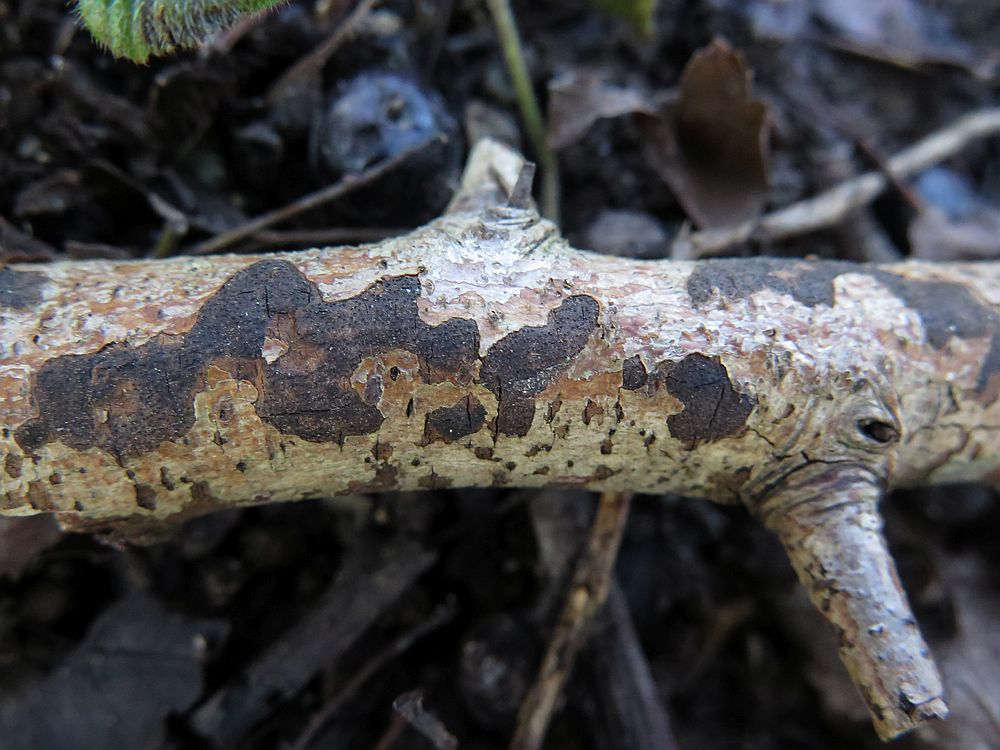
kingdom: Fungi
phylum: Ascomycota
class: Sordariomycetes
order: Xylariales
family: Diatrypaceae
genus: Eutypa
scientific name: Eutypa lata
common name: almindelig kulskorpe
